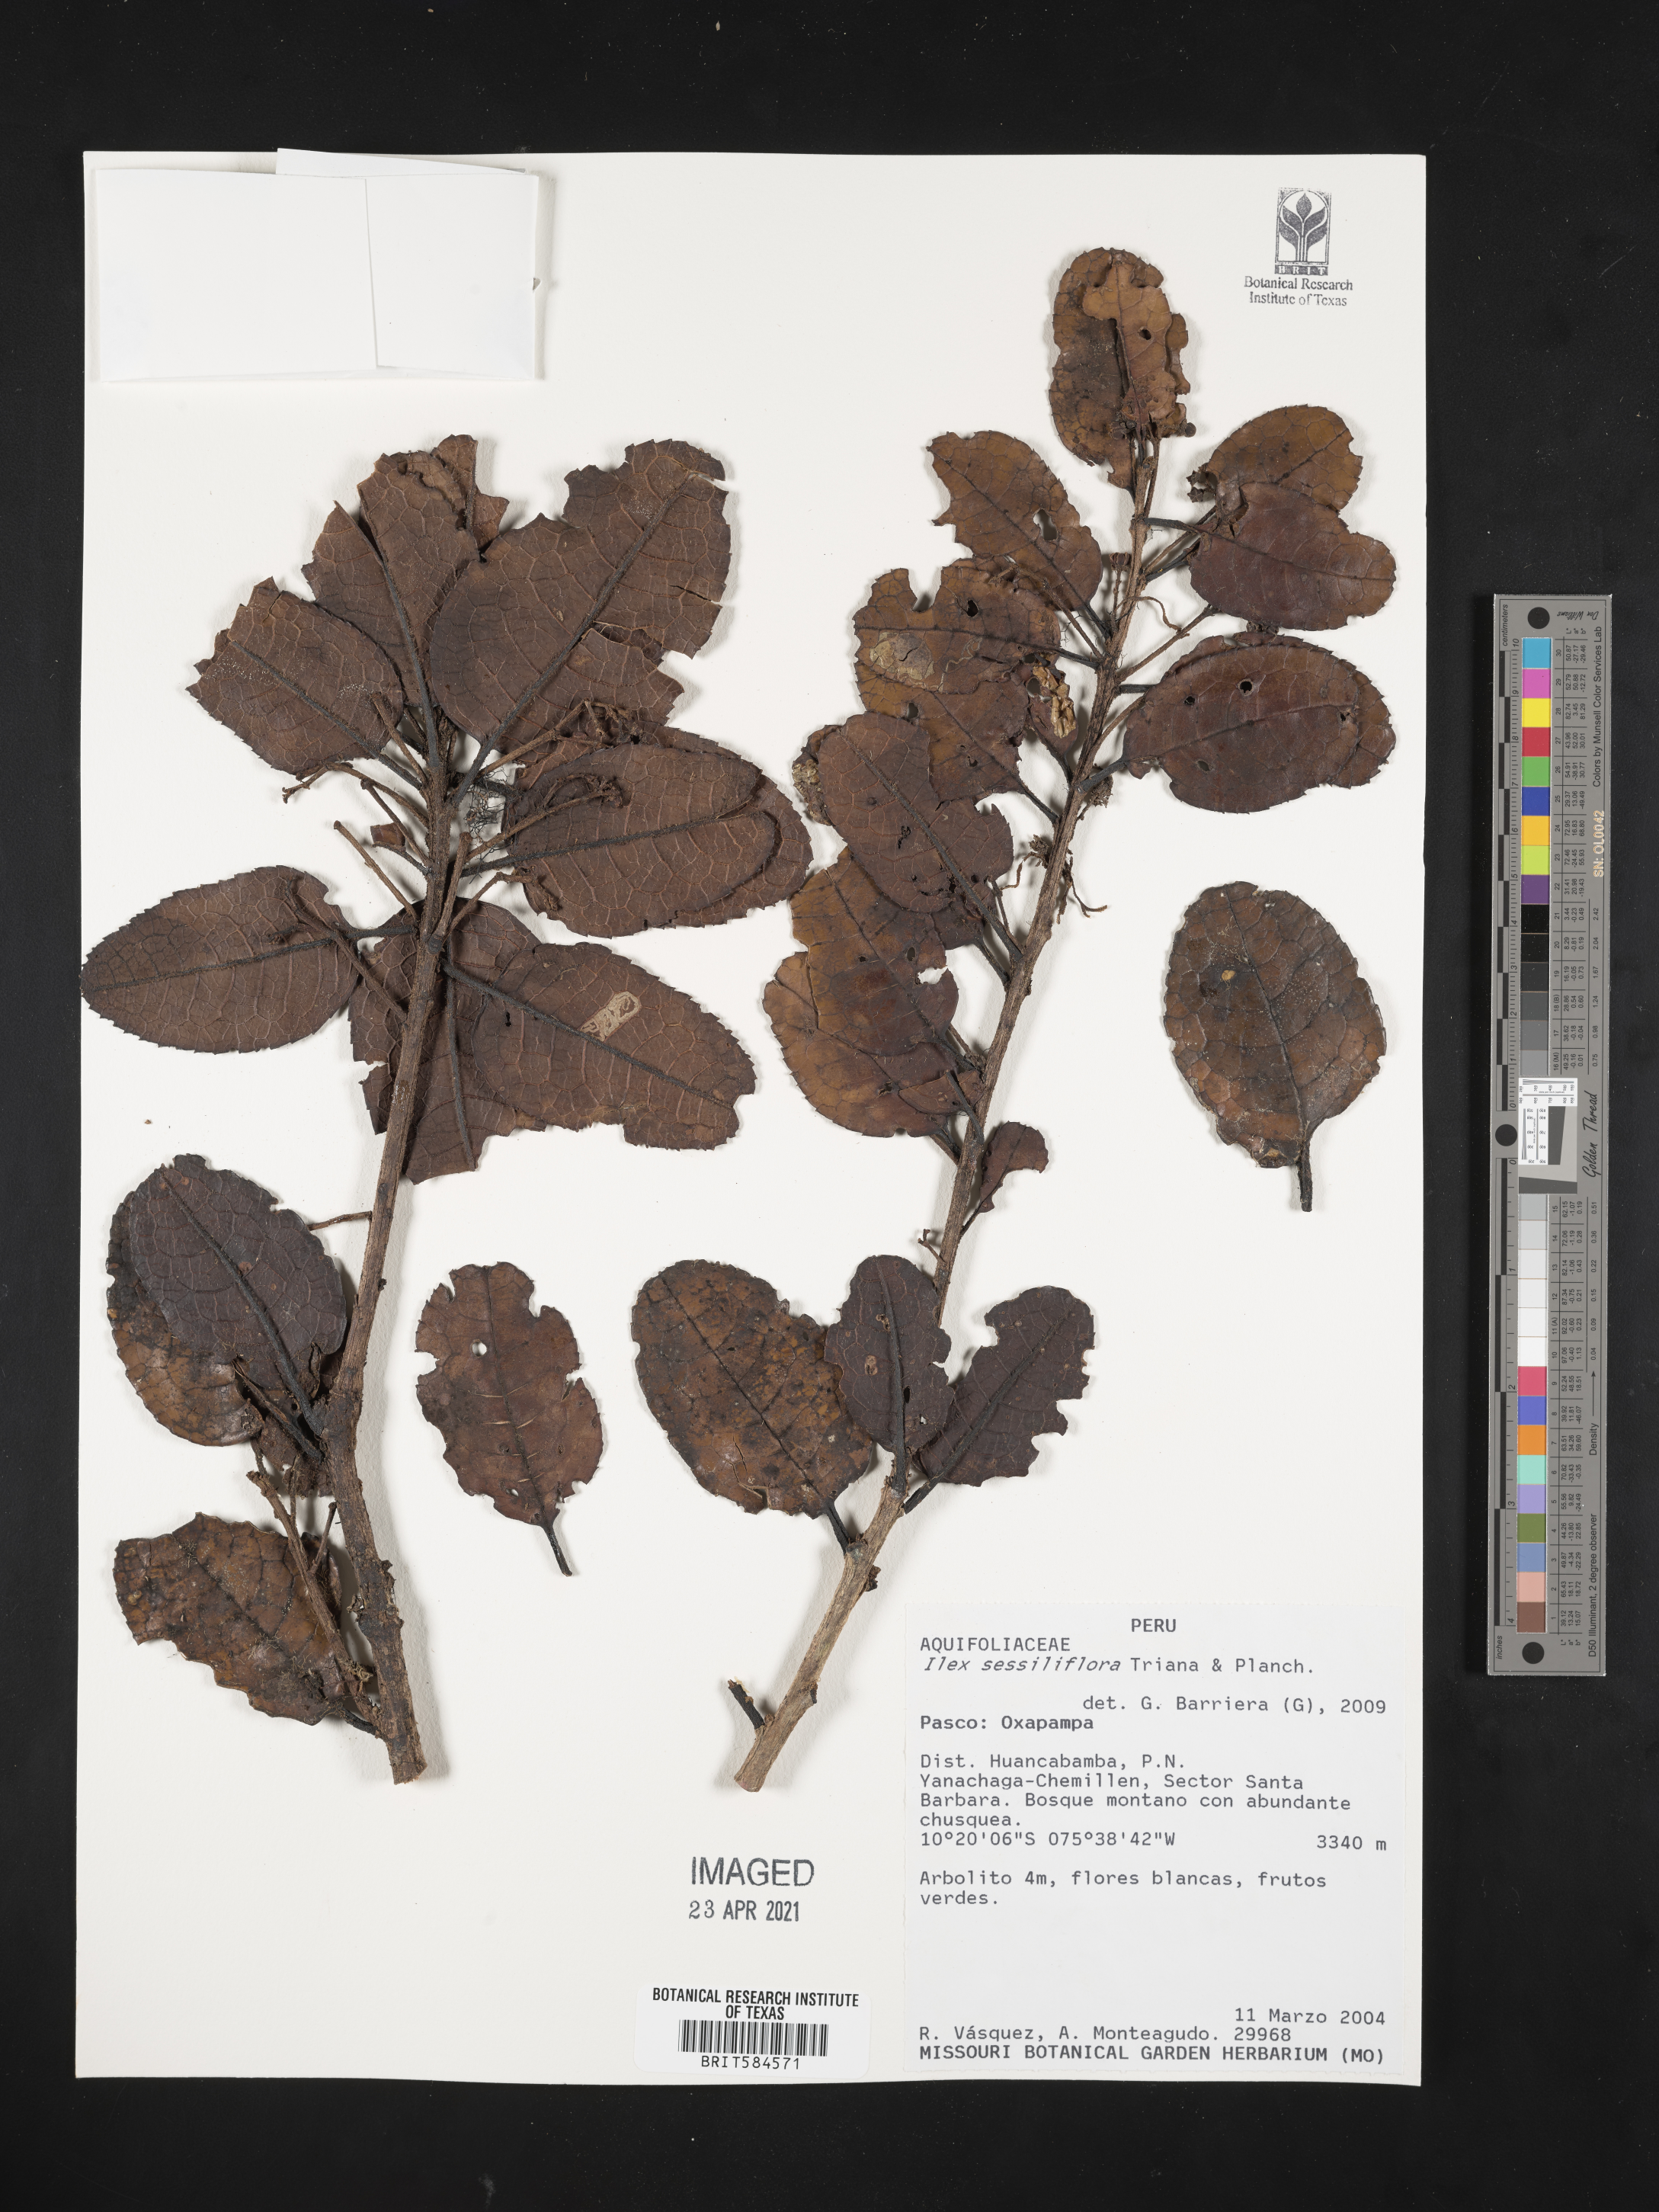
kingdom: Plantae
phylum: Tracheophyta
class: Magnoliopsida
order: Aquifoliales
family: Aquifoliaceae
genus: Ilex
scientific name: Ilex sessiliflora
